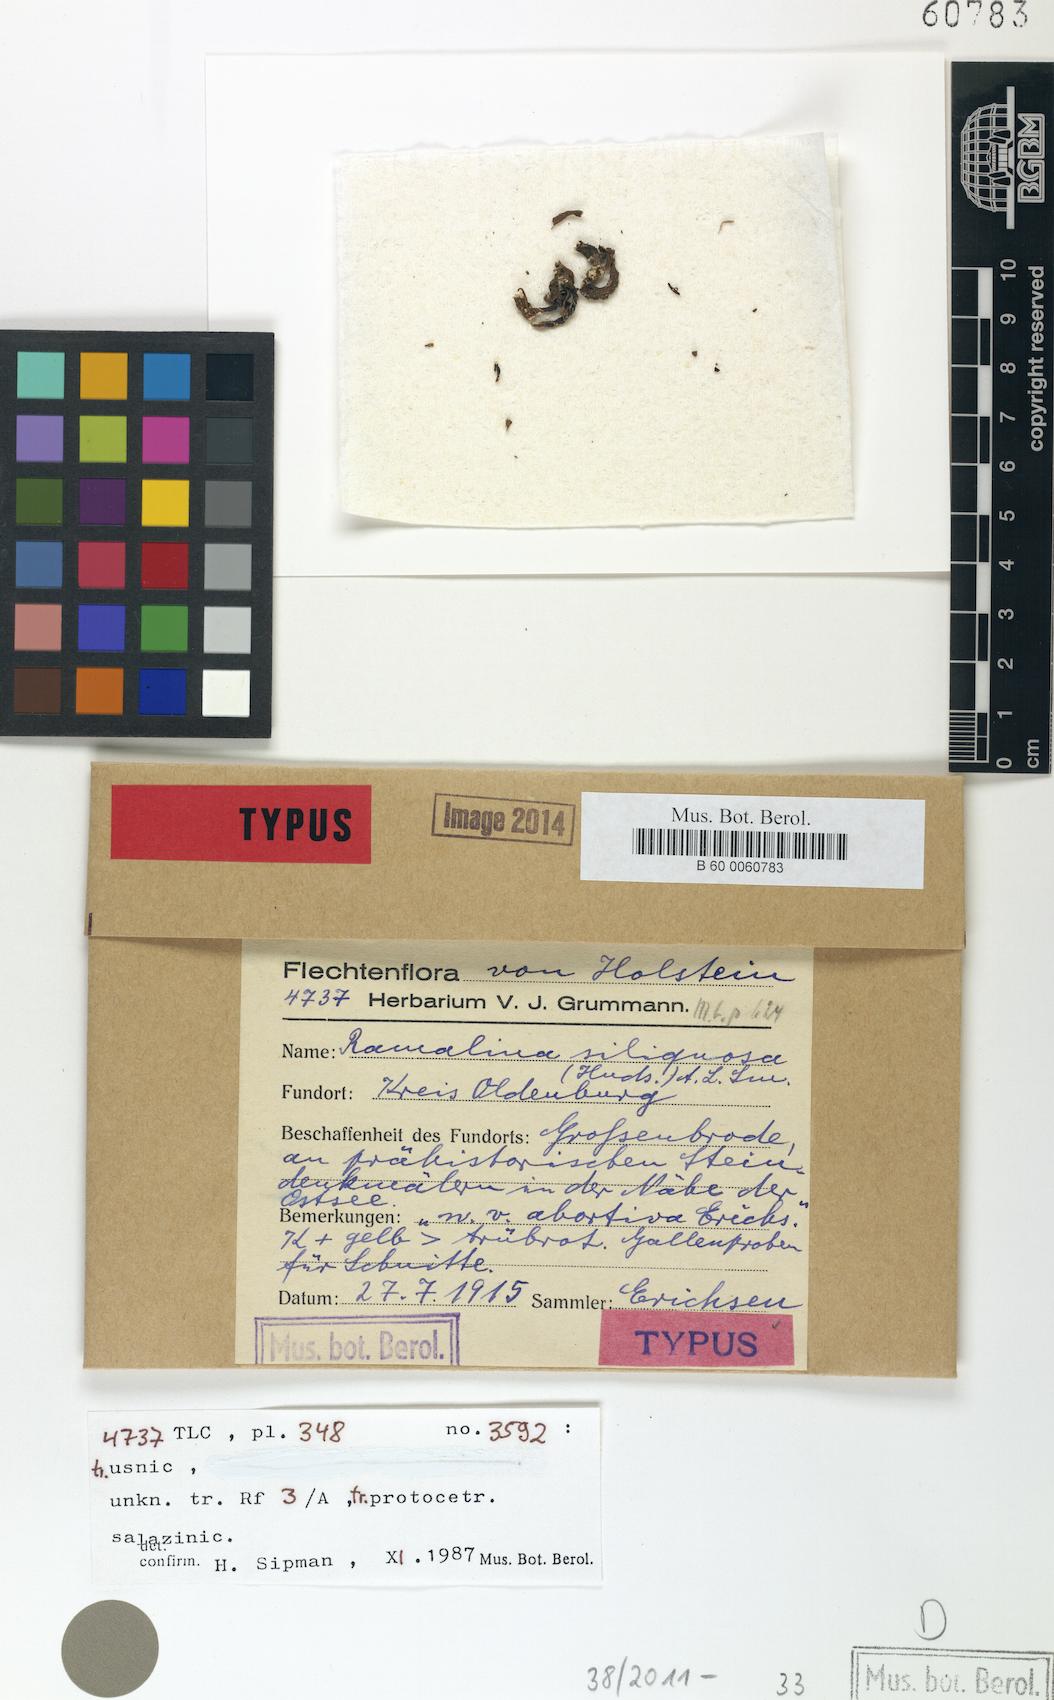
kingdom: Fungi
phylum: Ascomycota
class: Lecanoromycetes
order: Lecanorales
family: Ramalinaceae
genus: Ramalina
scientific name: Ramalina siliquosa
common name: Sea ivory
